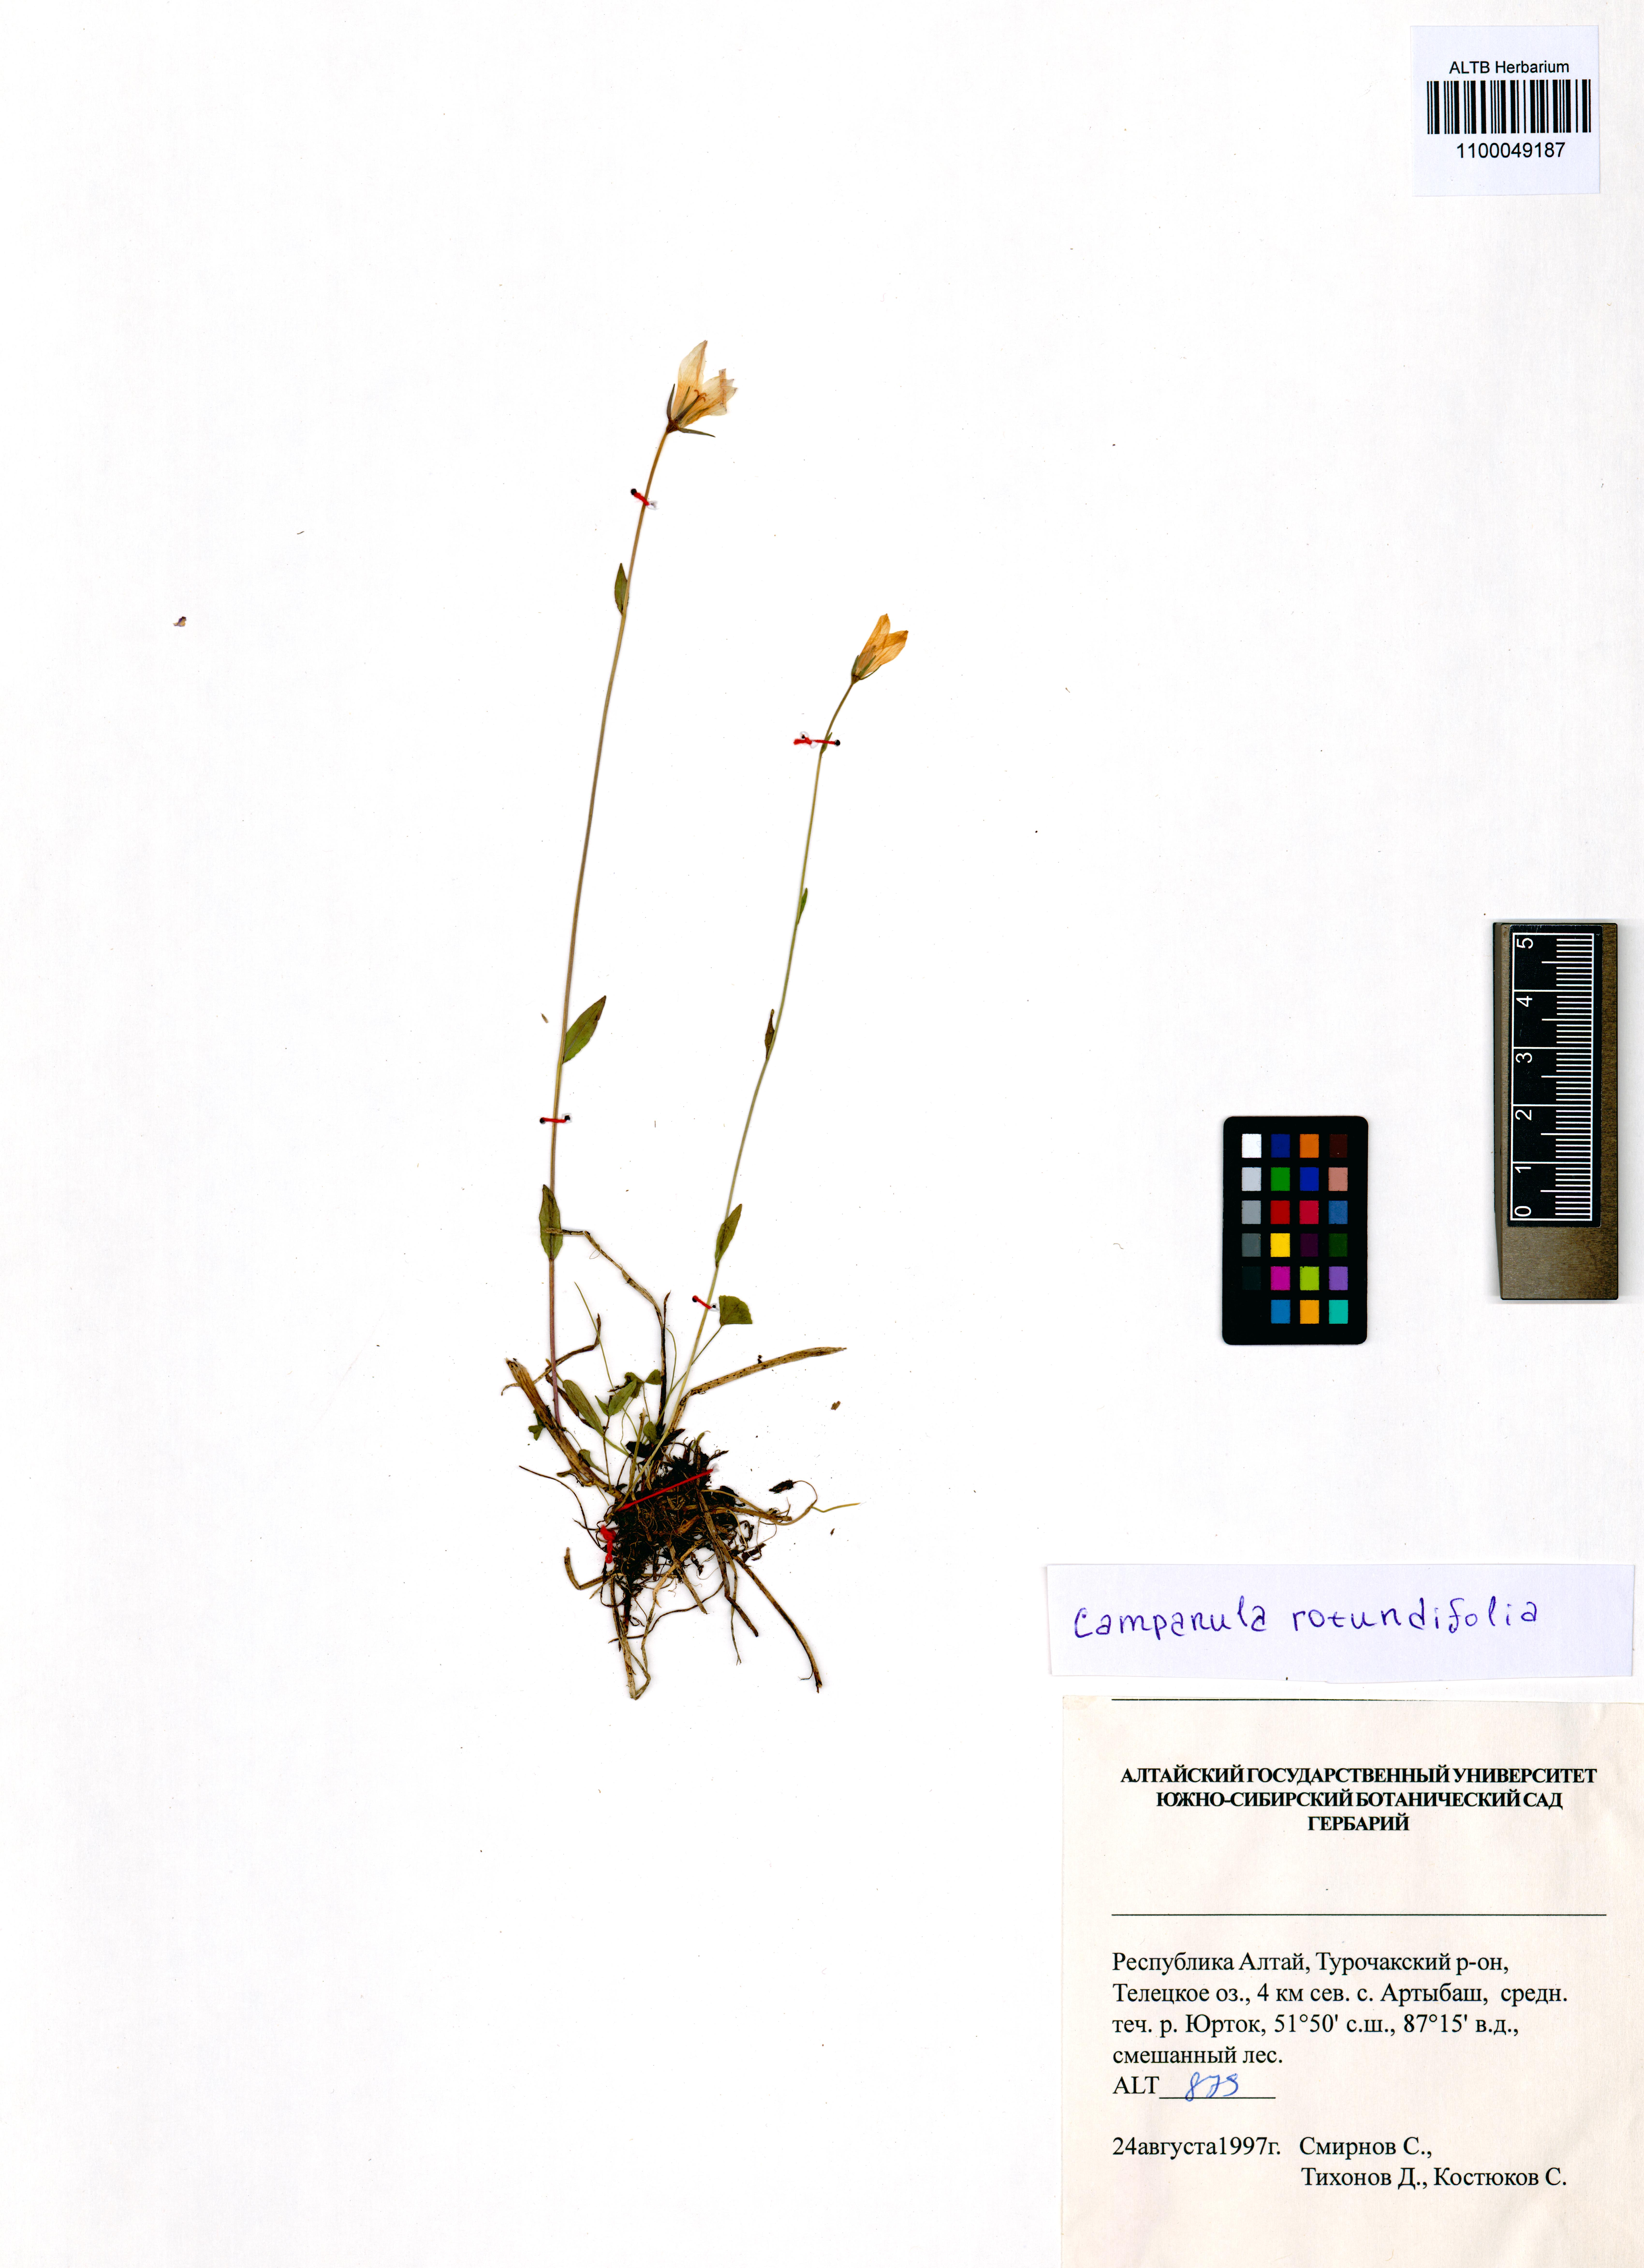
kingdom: Plantae
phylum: Tracheophyta
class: Magnoliopsida
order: Asterales
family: Campanulaceae
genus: Campanula
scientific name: Campanula rotundifolia
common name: Harebell
